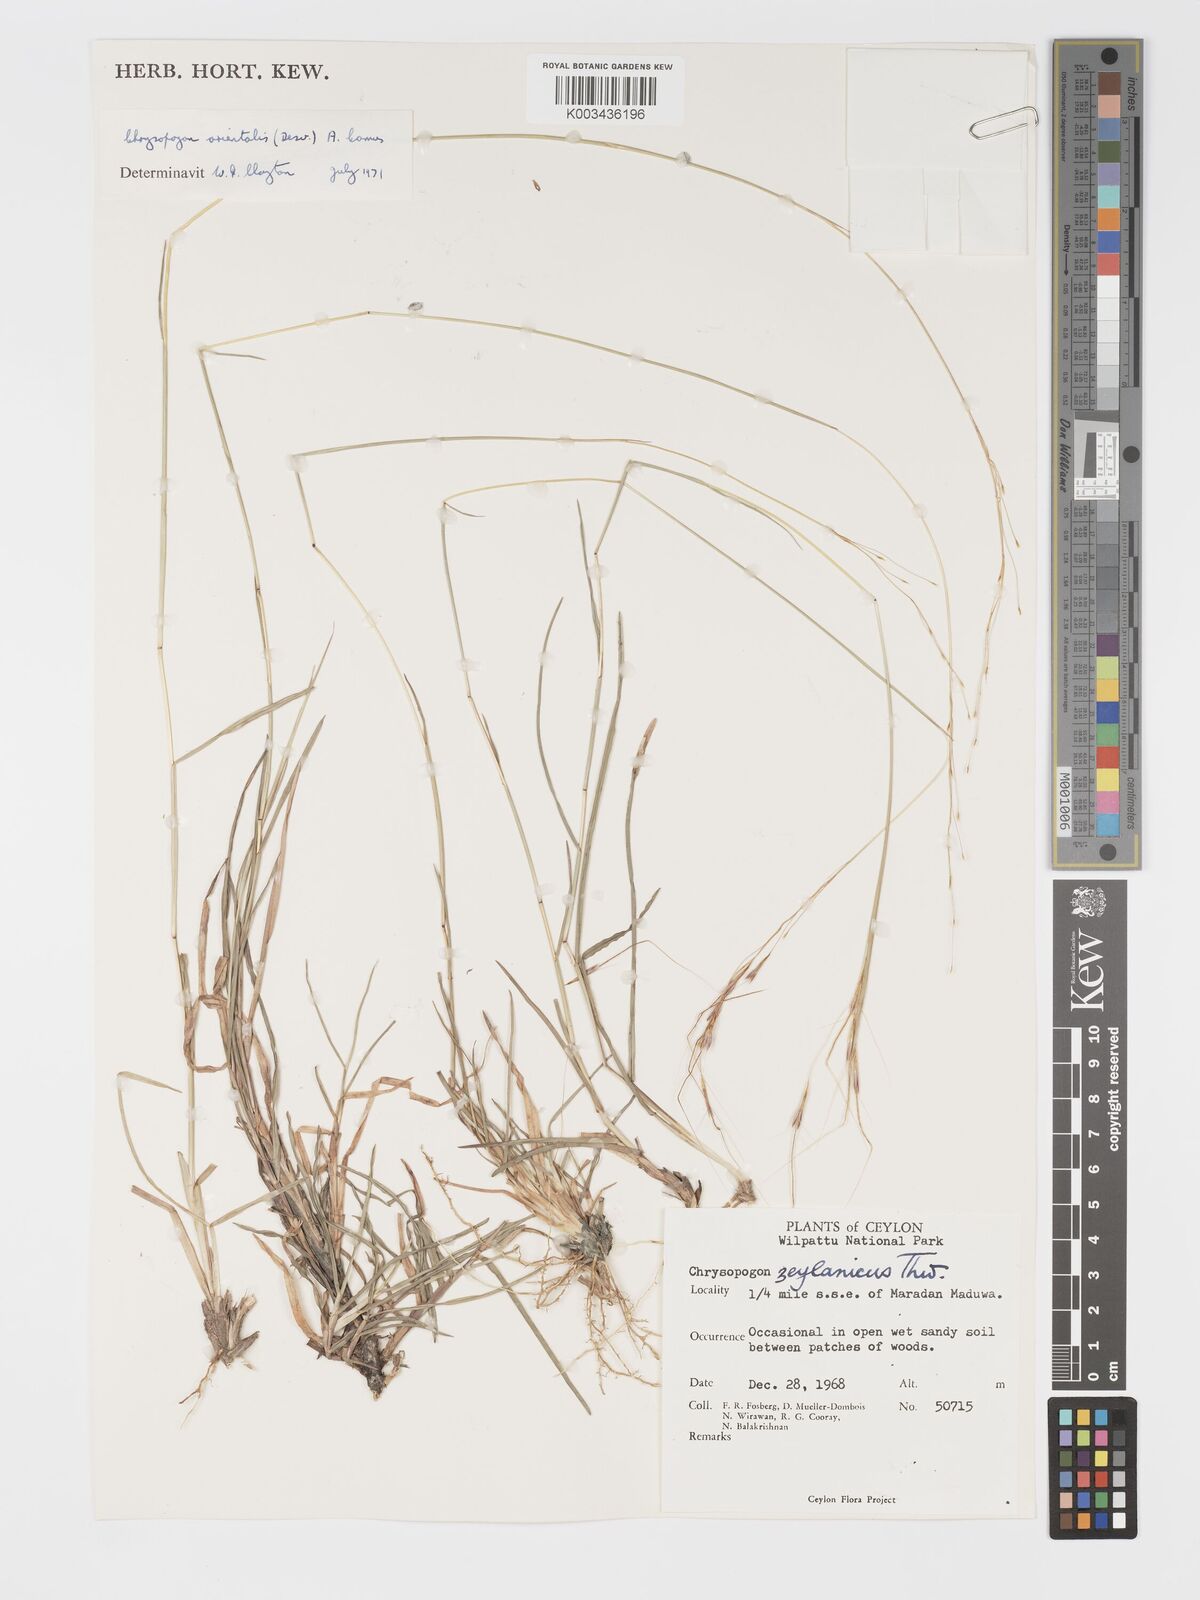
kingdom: Plantae
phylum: Tracheophyta
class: Liliopsida
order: Poales
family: Poaceae
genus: Chrysopogon
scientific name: Chrysopogon orientalis
